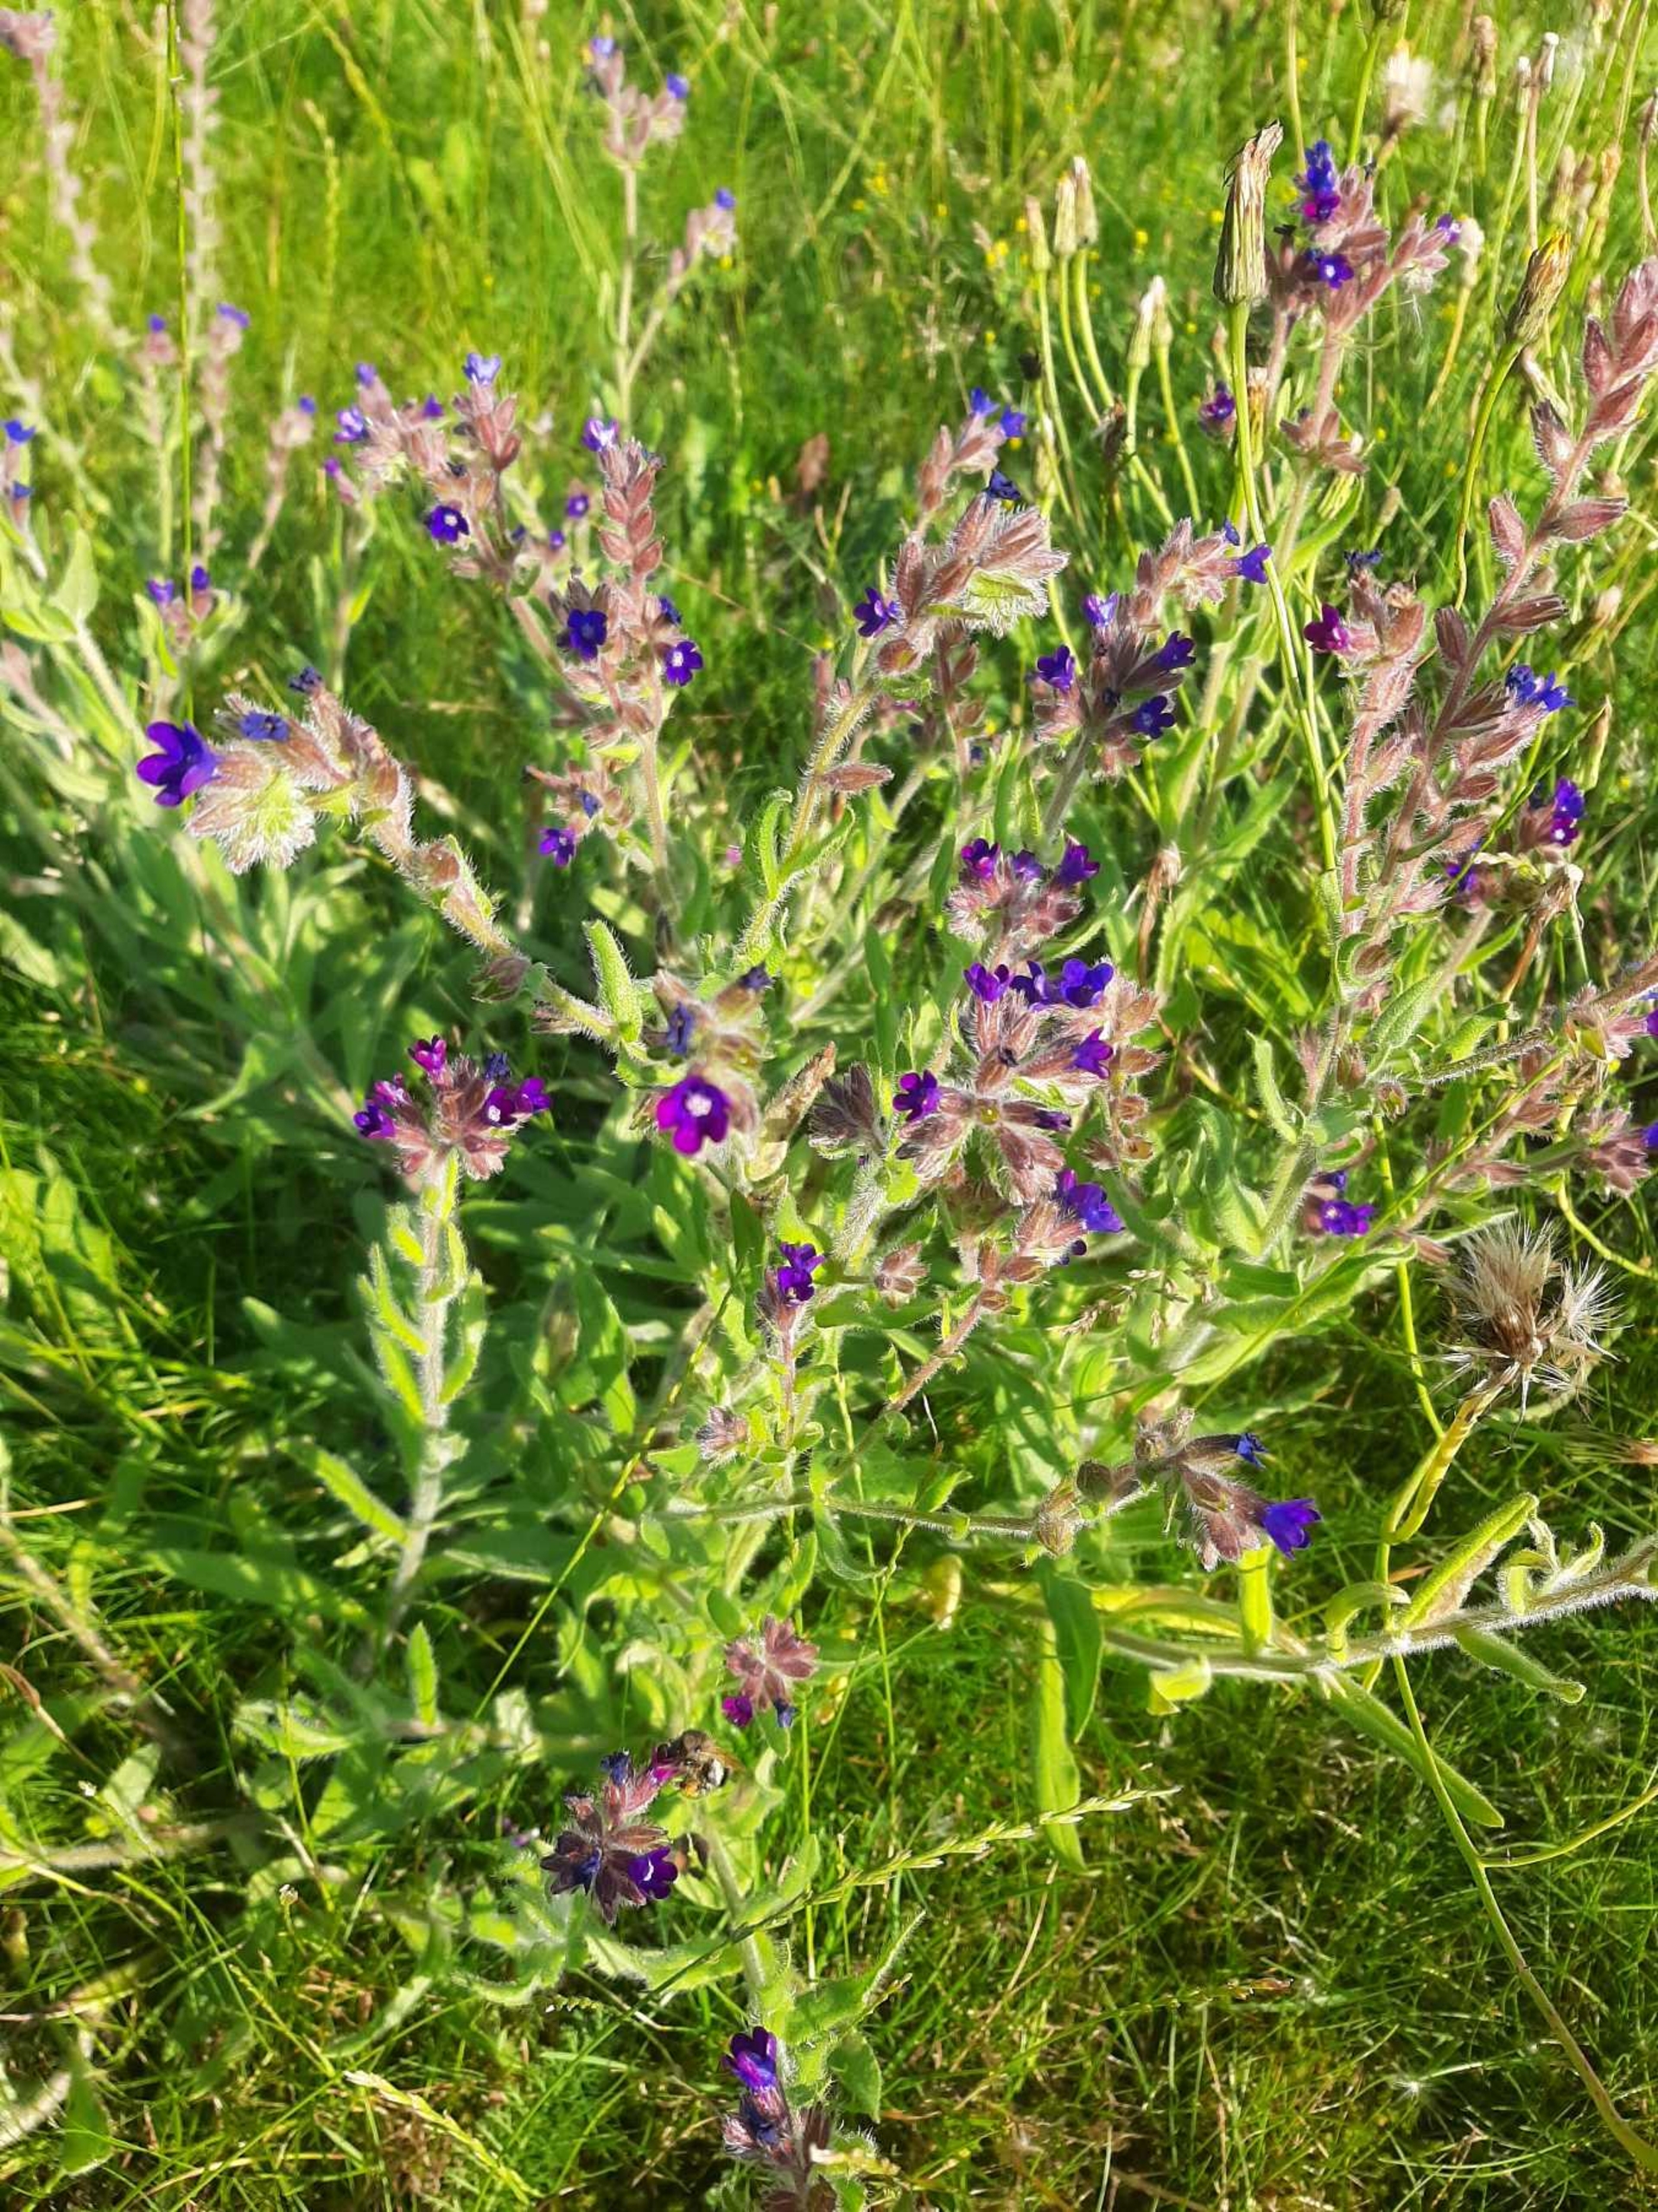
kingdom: Plantae
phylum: Tracheophyta
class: Magnoliopsida
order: Boraginales
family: Boraginaceae
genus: Anchusa
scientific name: Anchusa officinalis
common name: Læge-oksetunge
